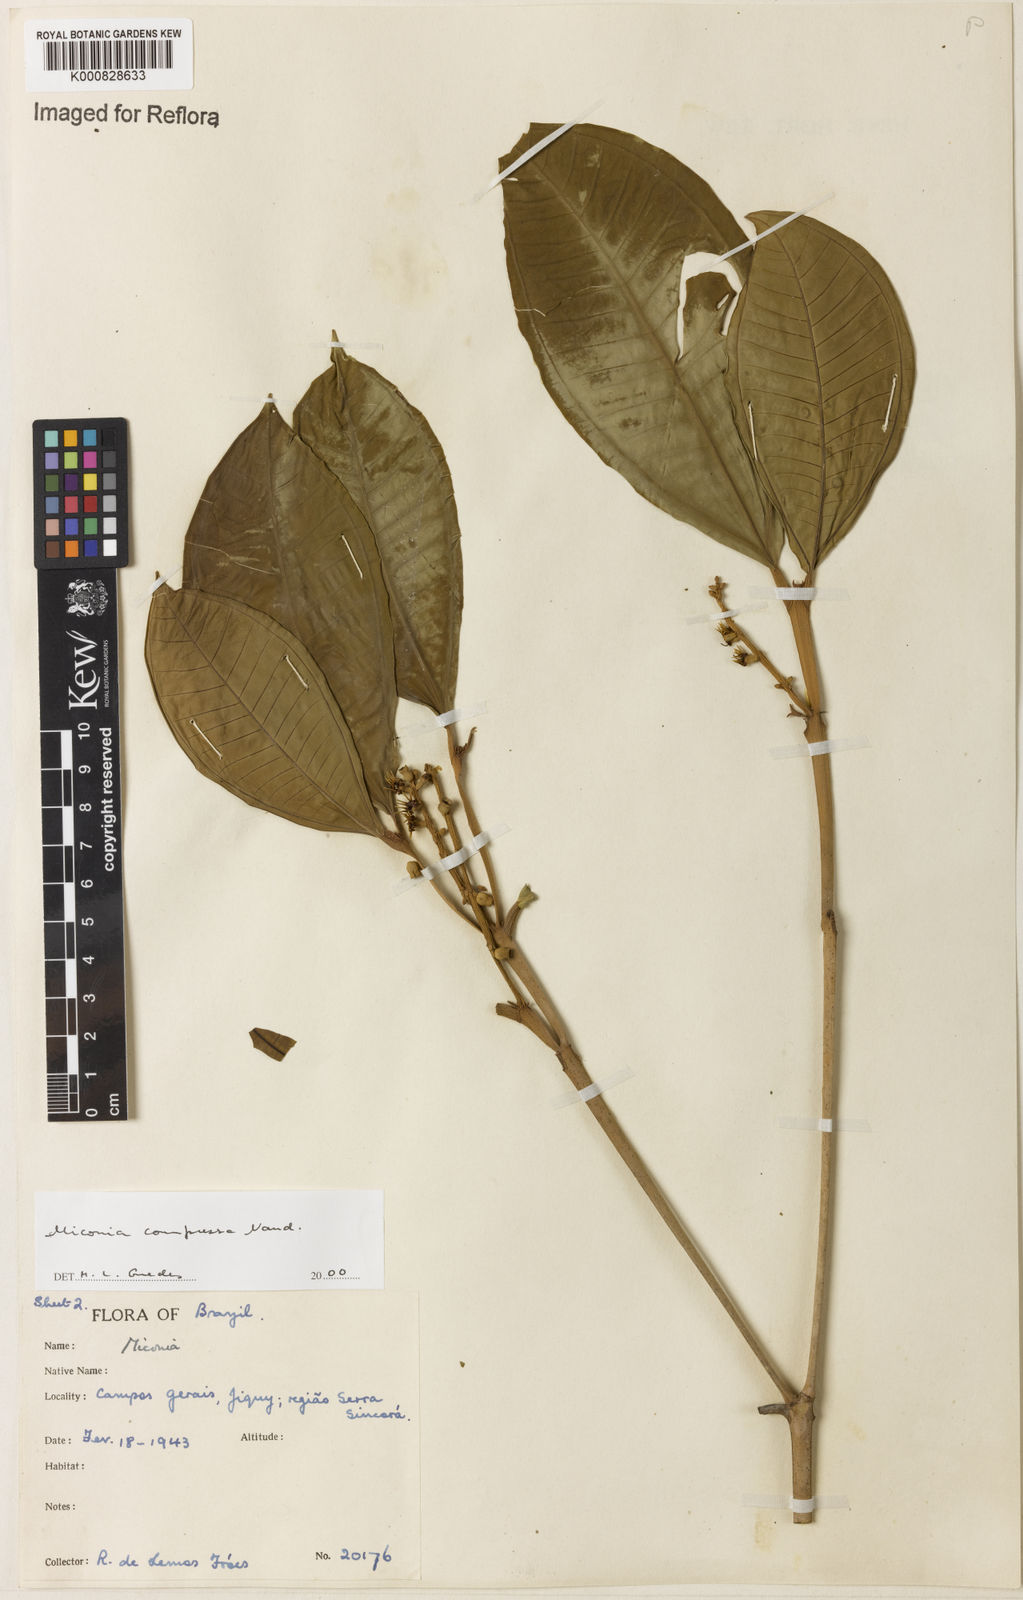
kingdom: Plantae
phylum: Tracheophyta
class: Magnoliopsida
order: Myrtales
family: Melastomataceae
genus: Miconia
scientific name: Miconia compressa
